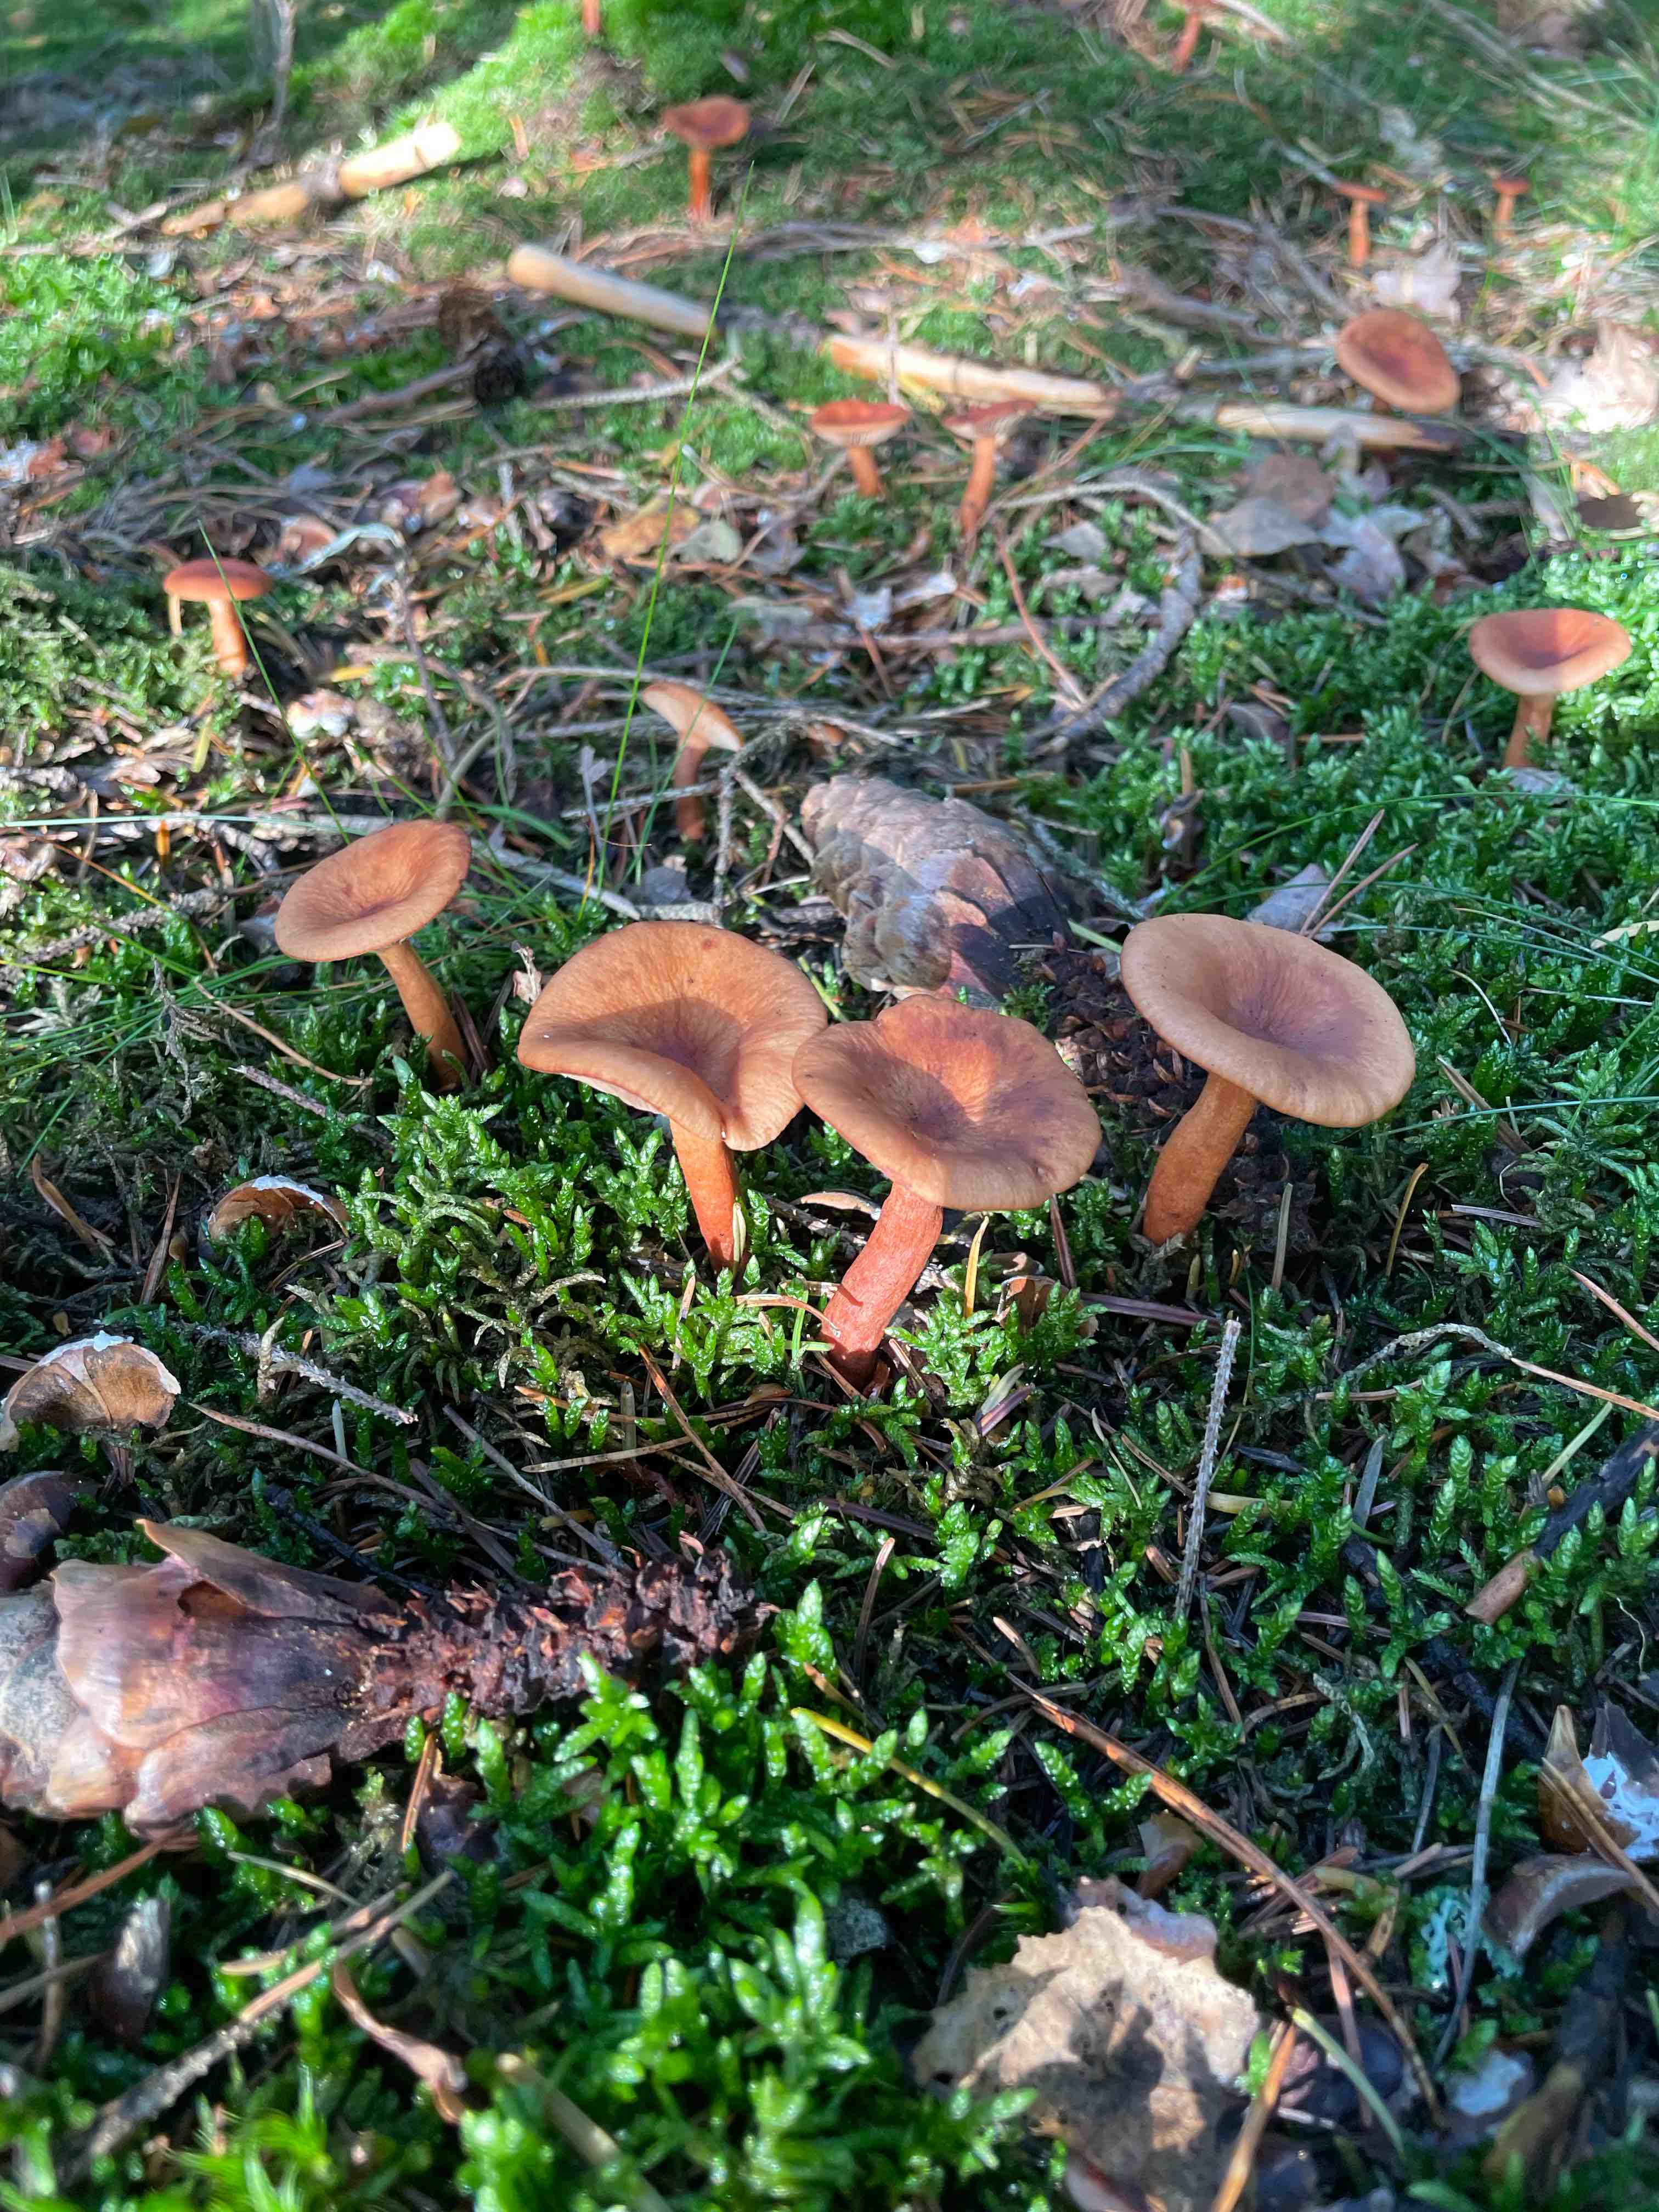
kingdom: Fungi
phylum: Basidiomycota
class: Agaricomycetes
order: Russulales
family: Russulaceae
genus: Lactarius
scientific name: Lactarius
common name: mælkehat
